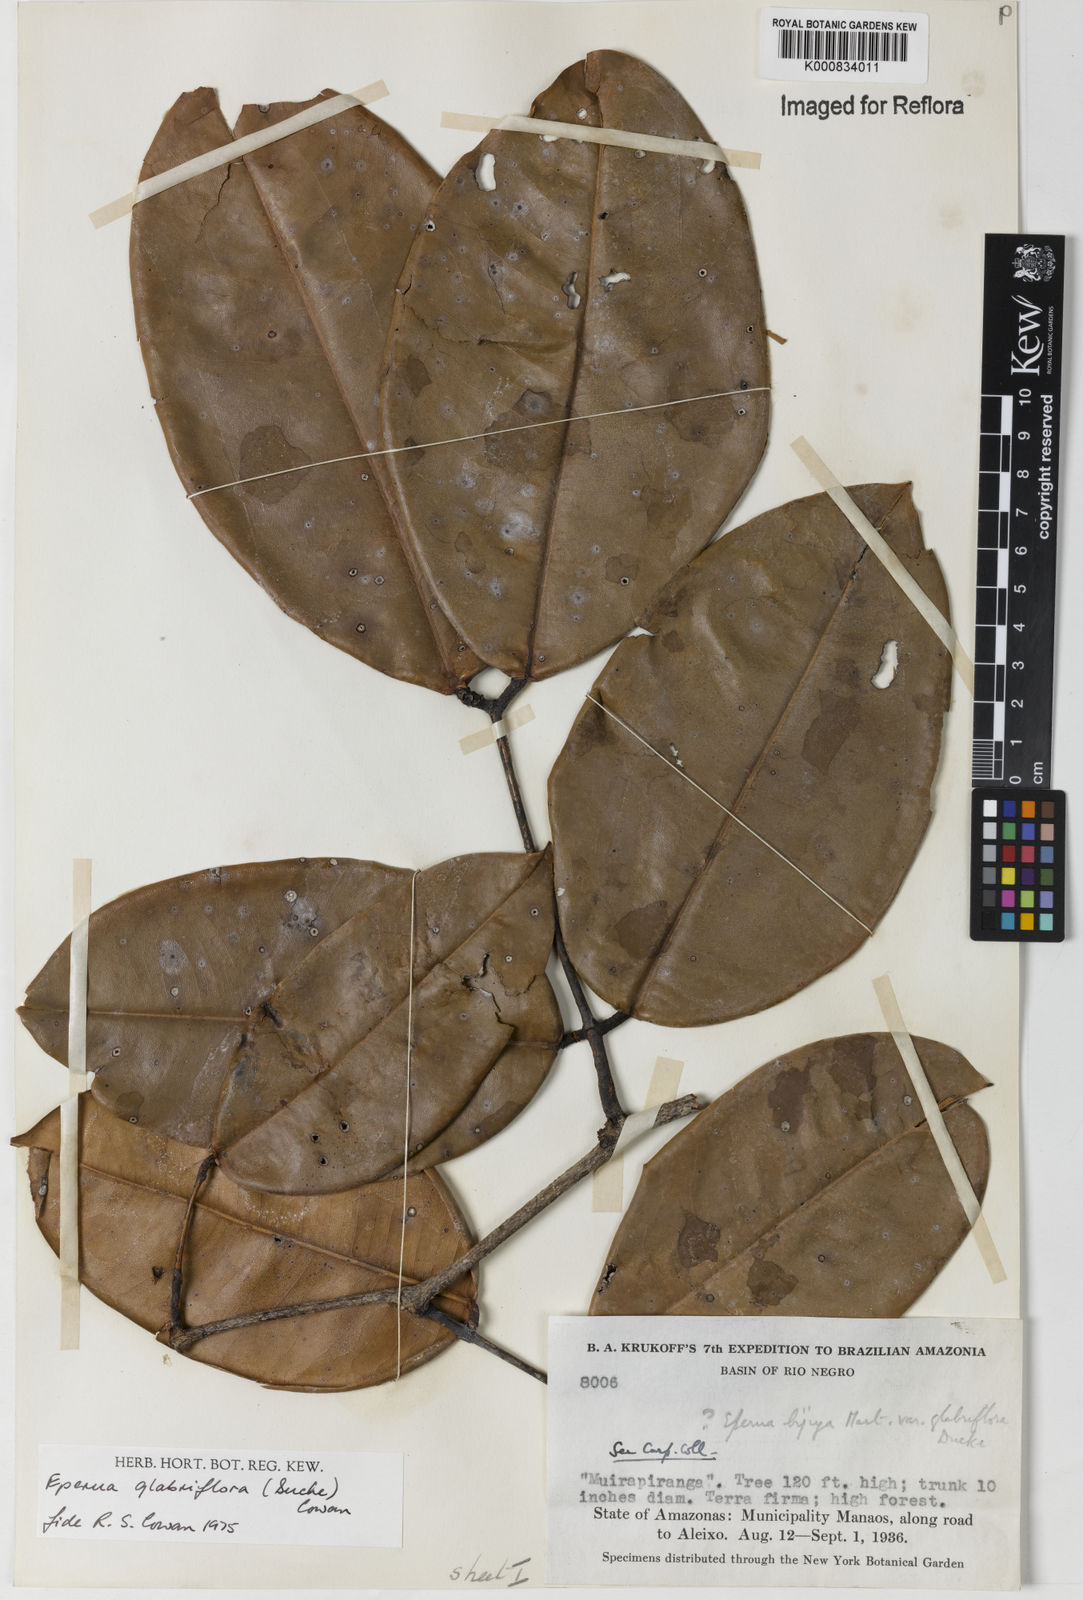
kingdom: Plantae
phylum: Tracheophyta
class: Magnoliopsida
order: Fabales
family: Fabaceae
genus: Eperua
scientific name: Eperua glabriflora
